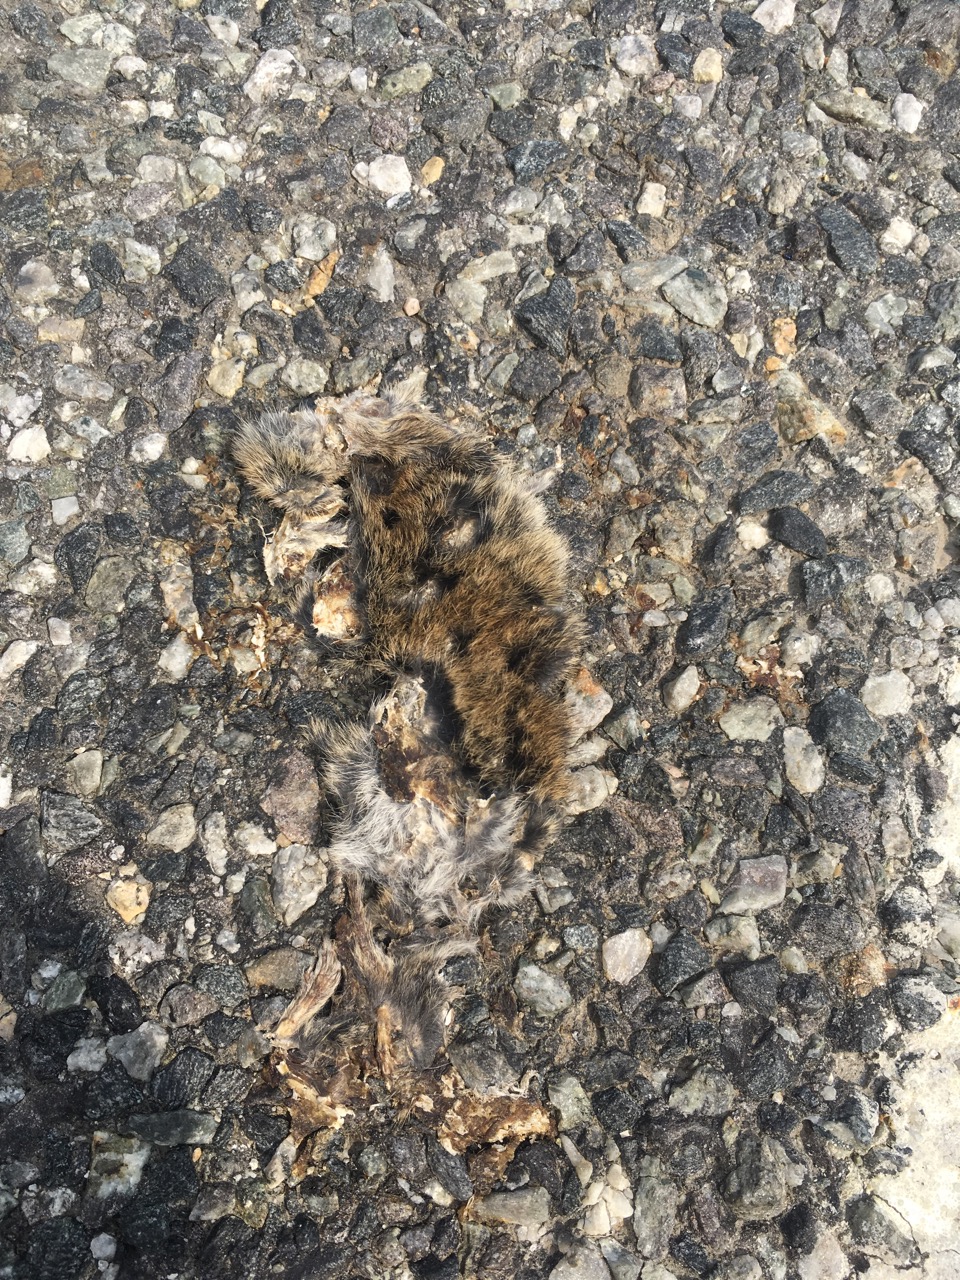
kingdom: Animalia
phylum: Chordata
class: Mammalia
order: Rodentia
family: Cricetidae
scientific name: Cricetidae
